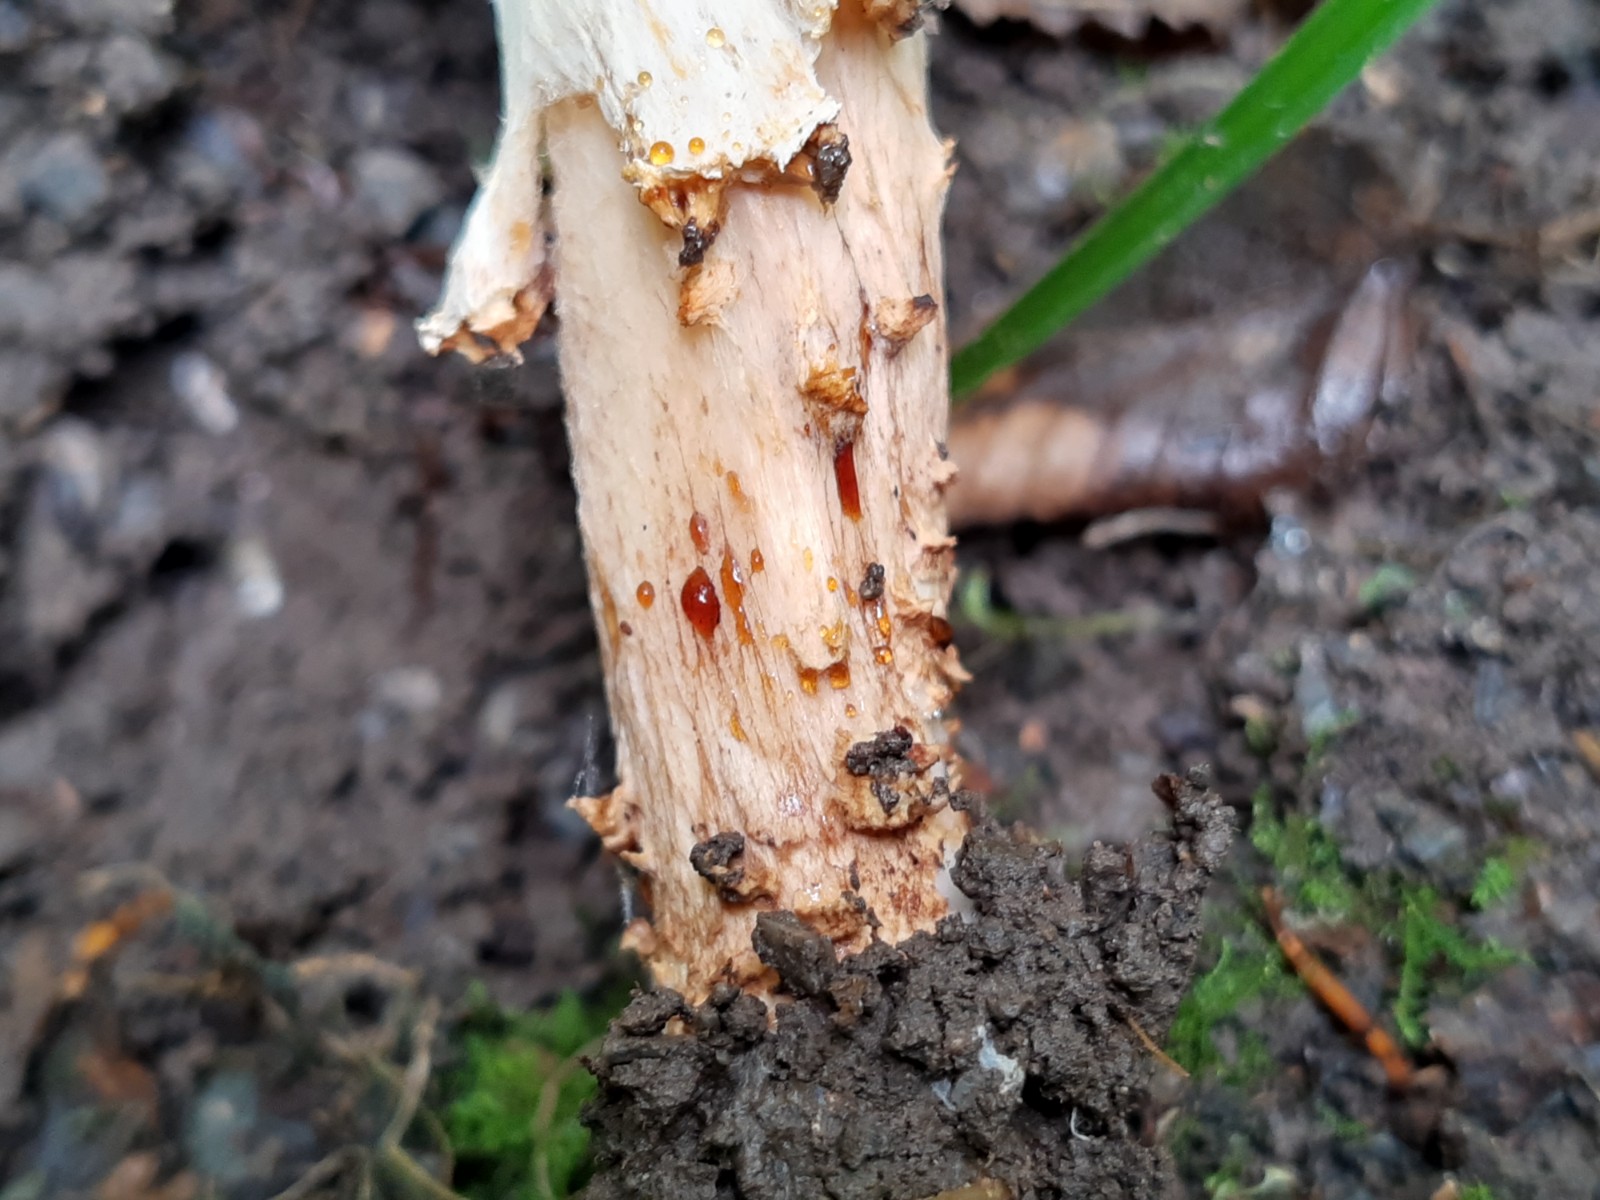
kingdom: Fungi
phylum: Basidiomycota
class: Agaricomycetes
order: Agaricales
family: Agaricaceae
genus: Echinoderma
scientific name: Echinoderma asperum
